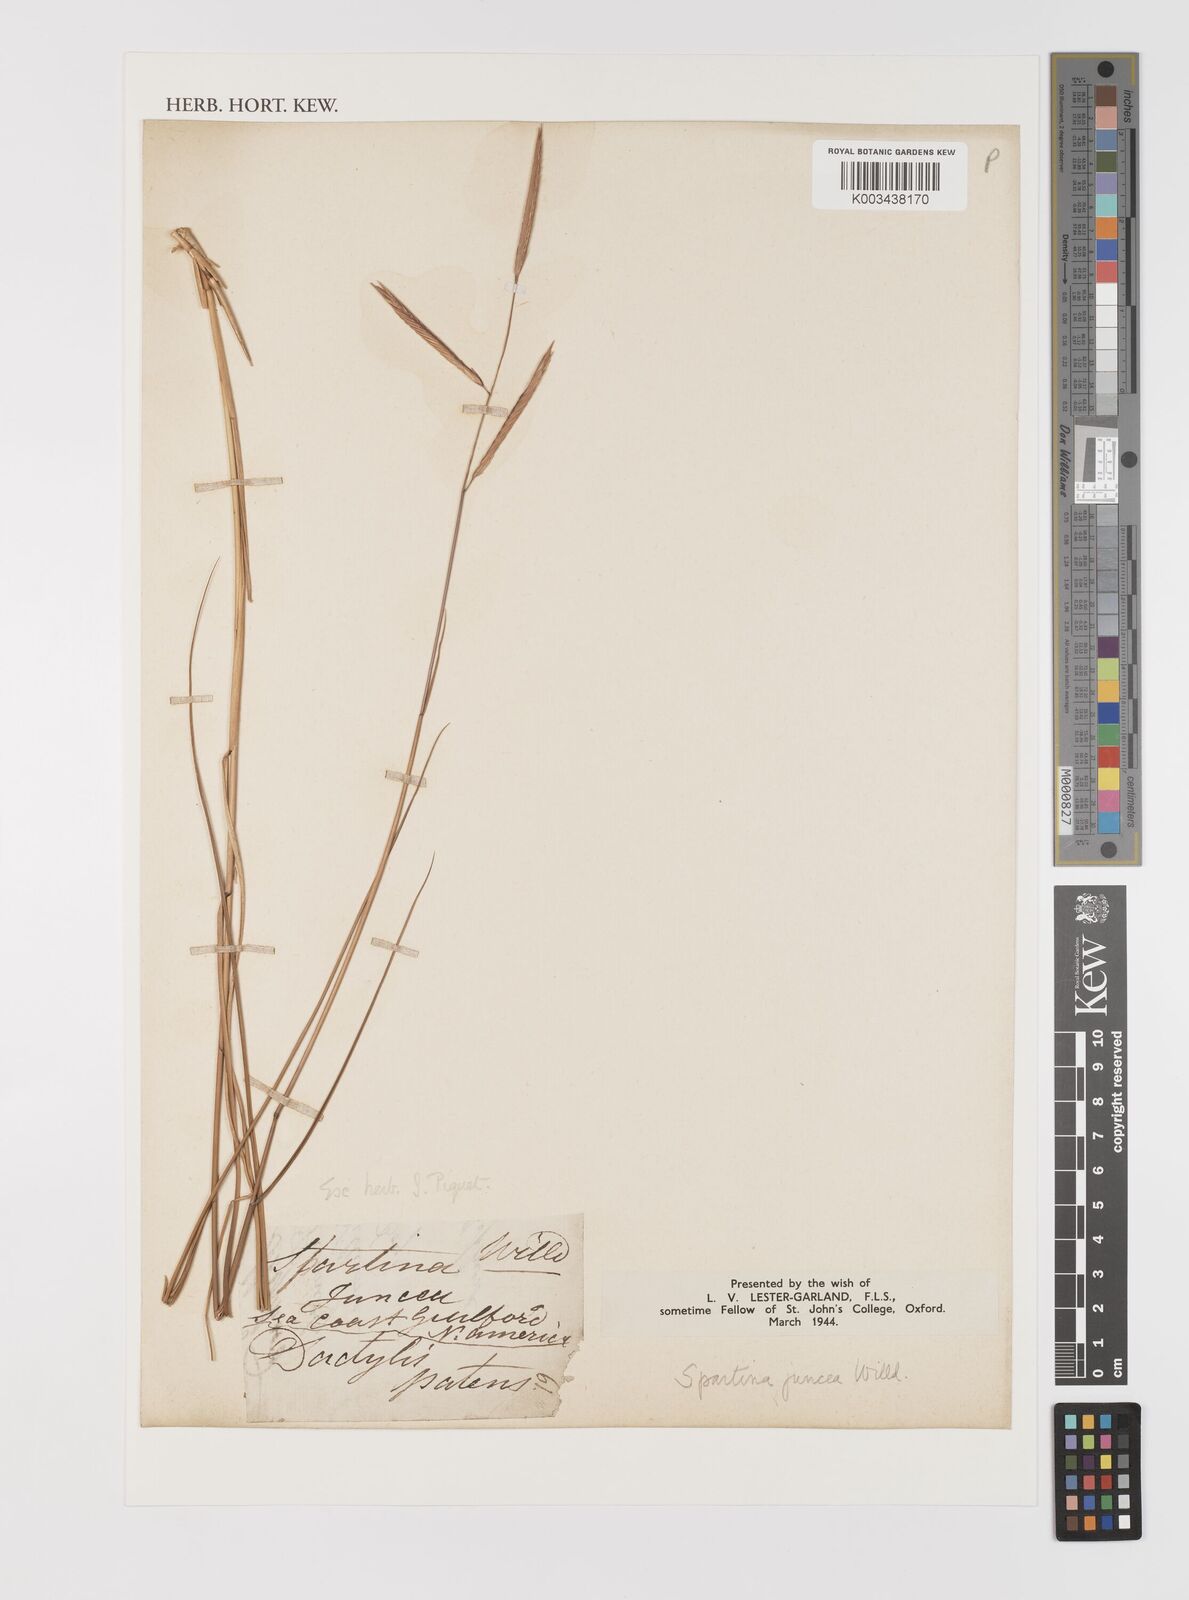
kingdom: Plantae
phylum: Tracheophyta
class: Liliopsida
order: Poales
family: Poaceae
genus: Sporobolus
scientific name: Sporobolus pumilus
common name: Highwater grass
